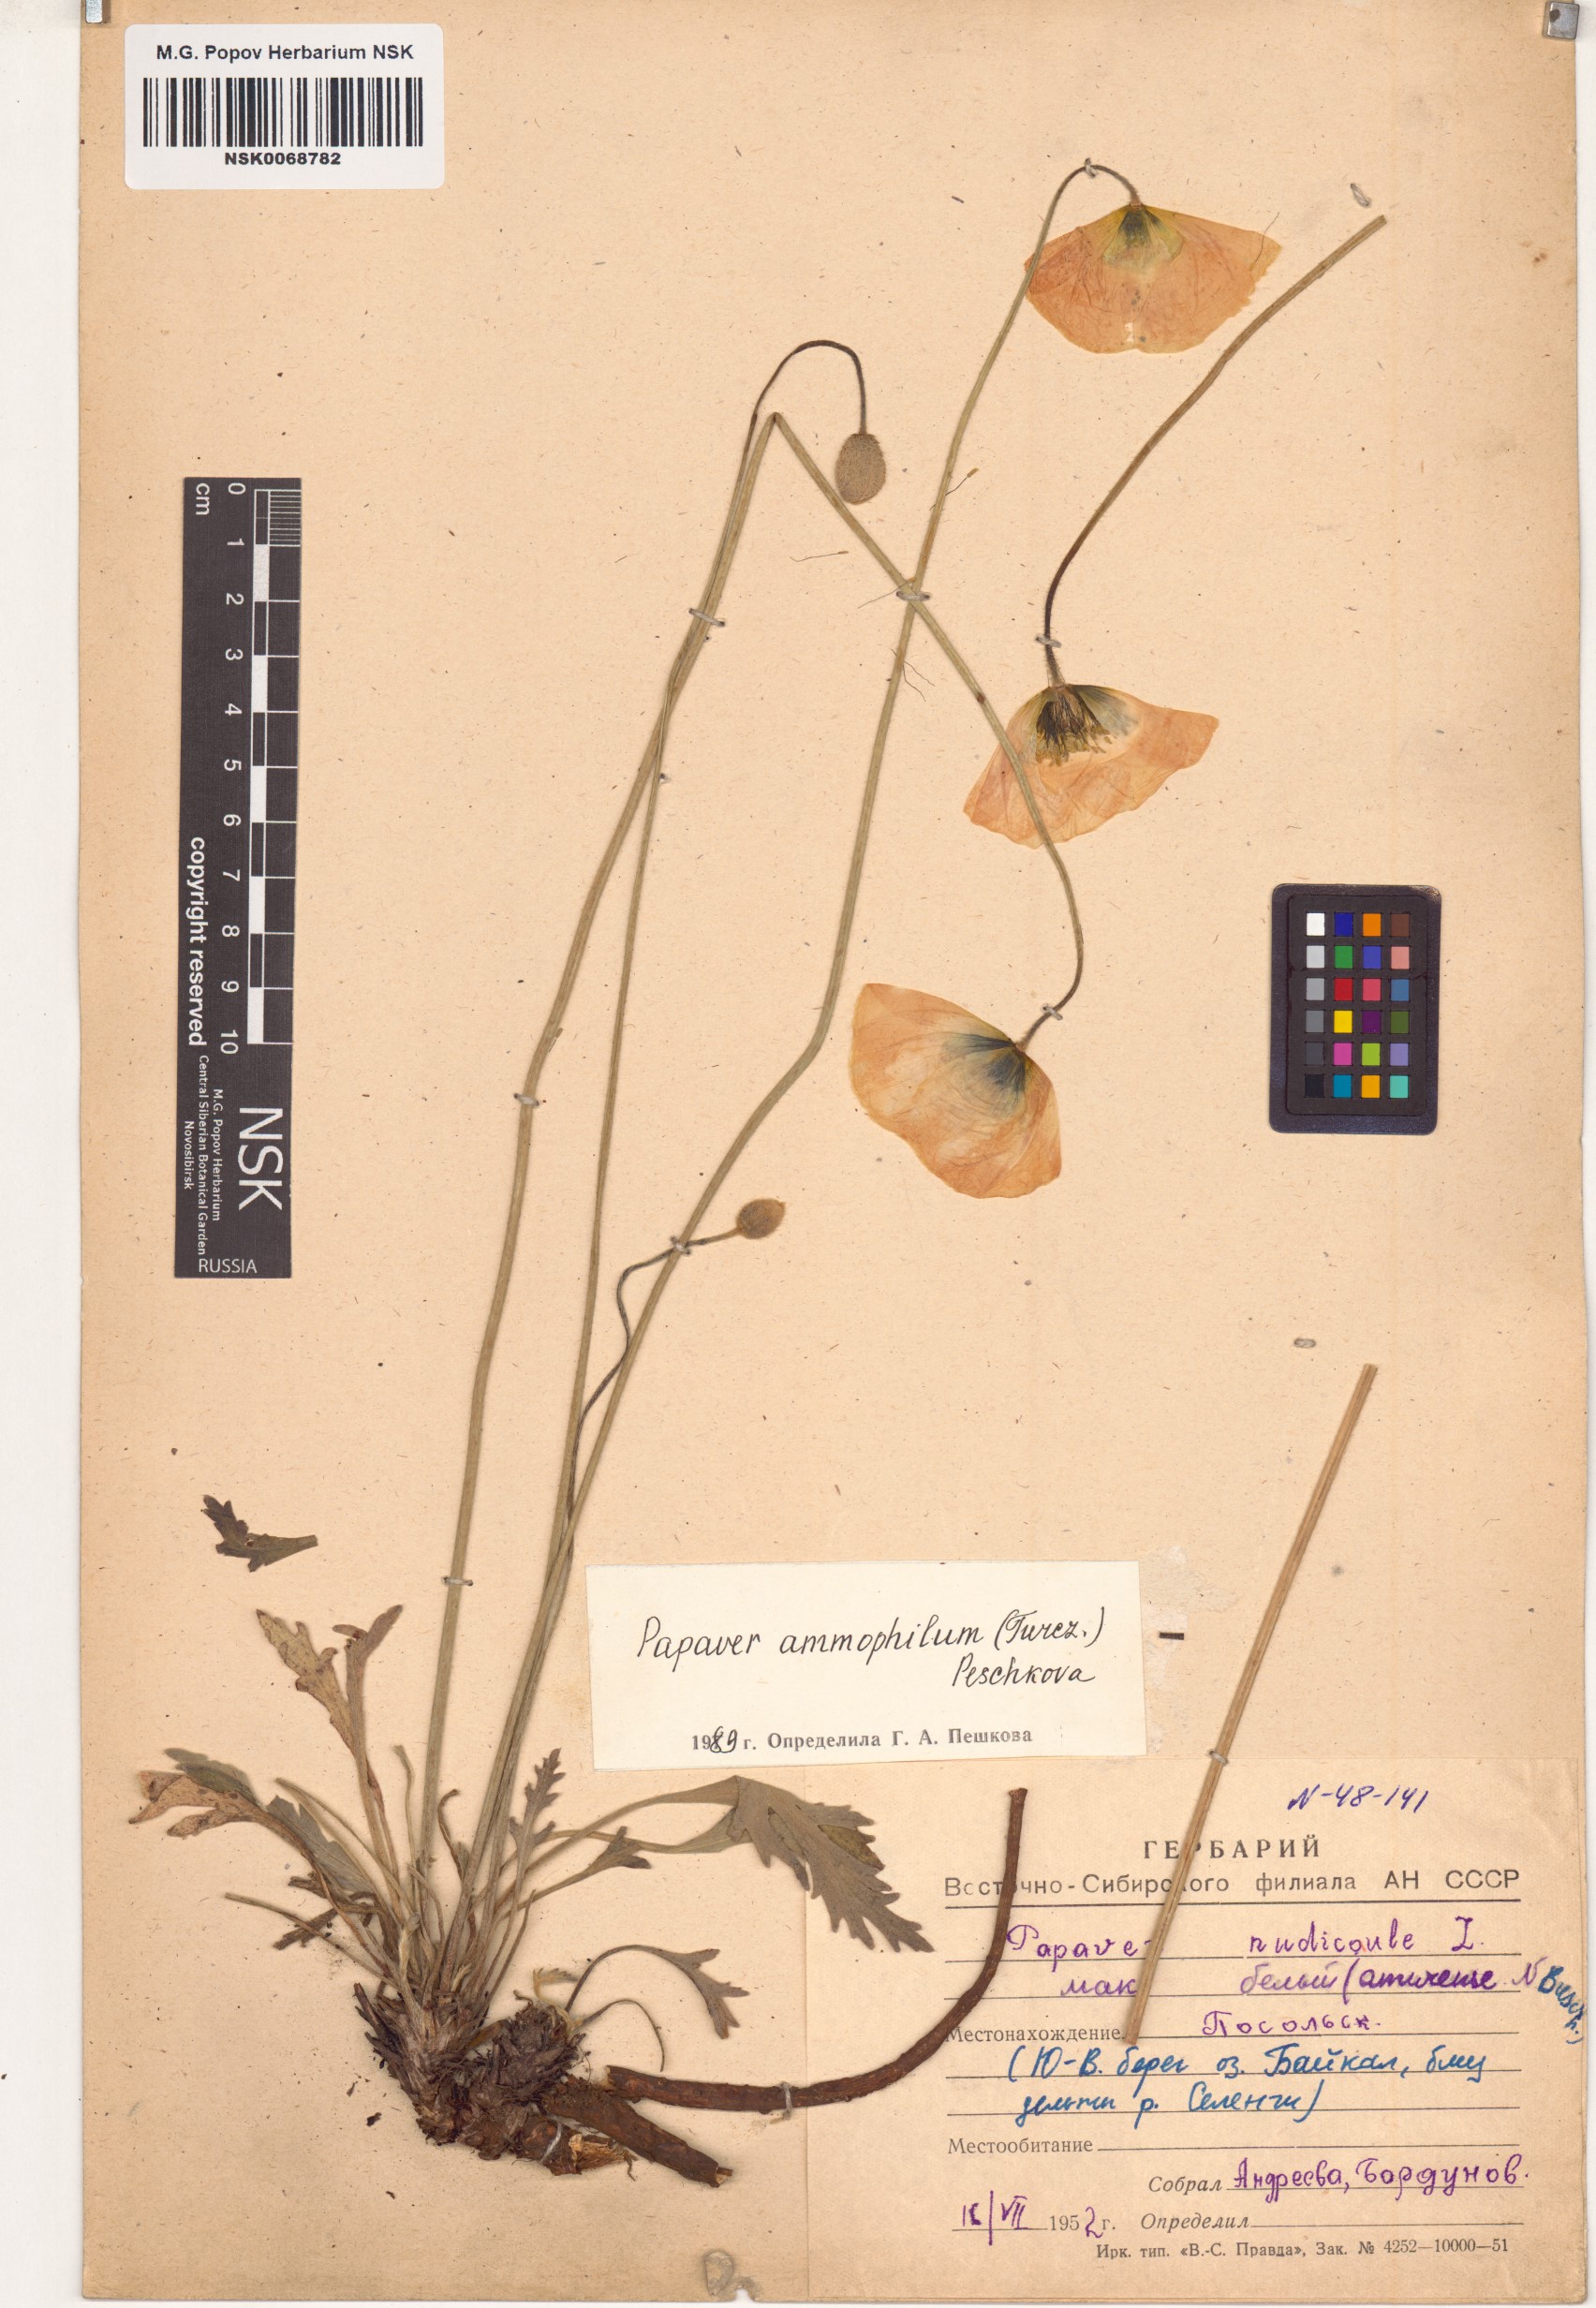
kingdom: Plantae
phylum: Tracheophyta
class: Magnoliopsida
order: Ranunculales
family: Papaveraceae
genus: Papaver
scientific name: Papaver nudicaule
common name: Arctic poppy
